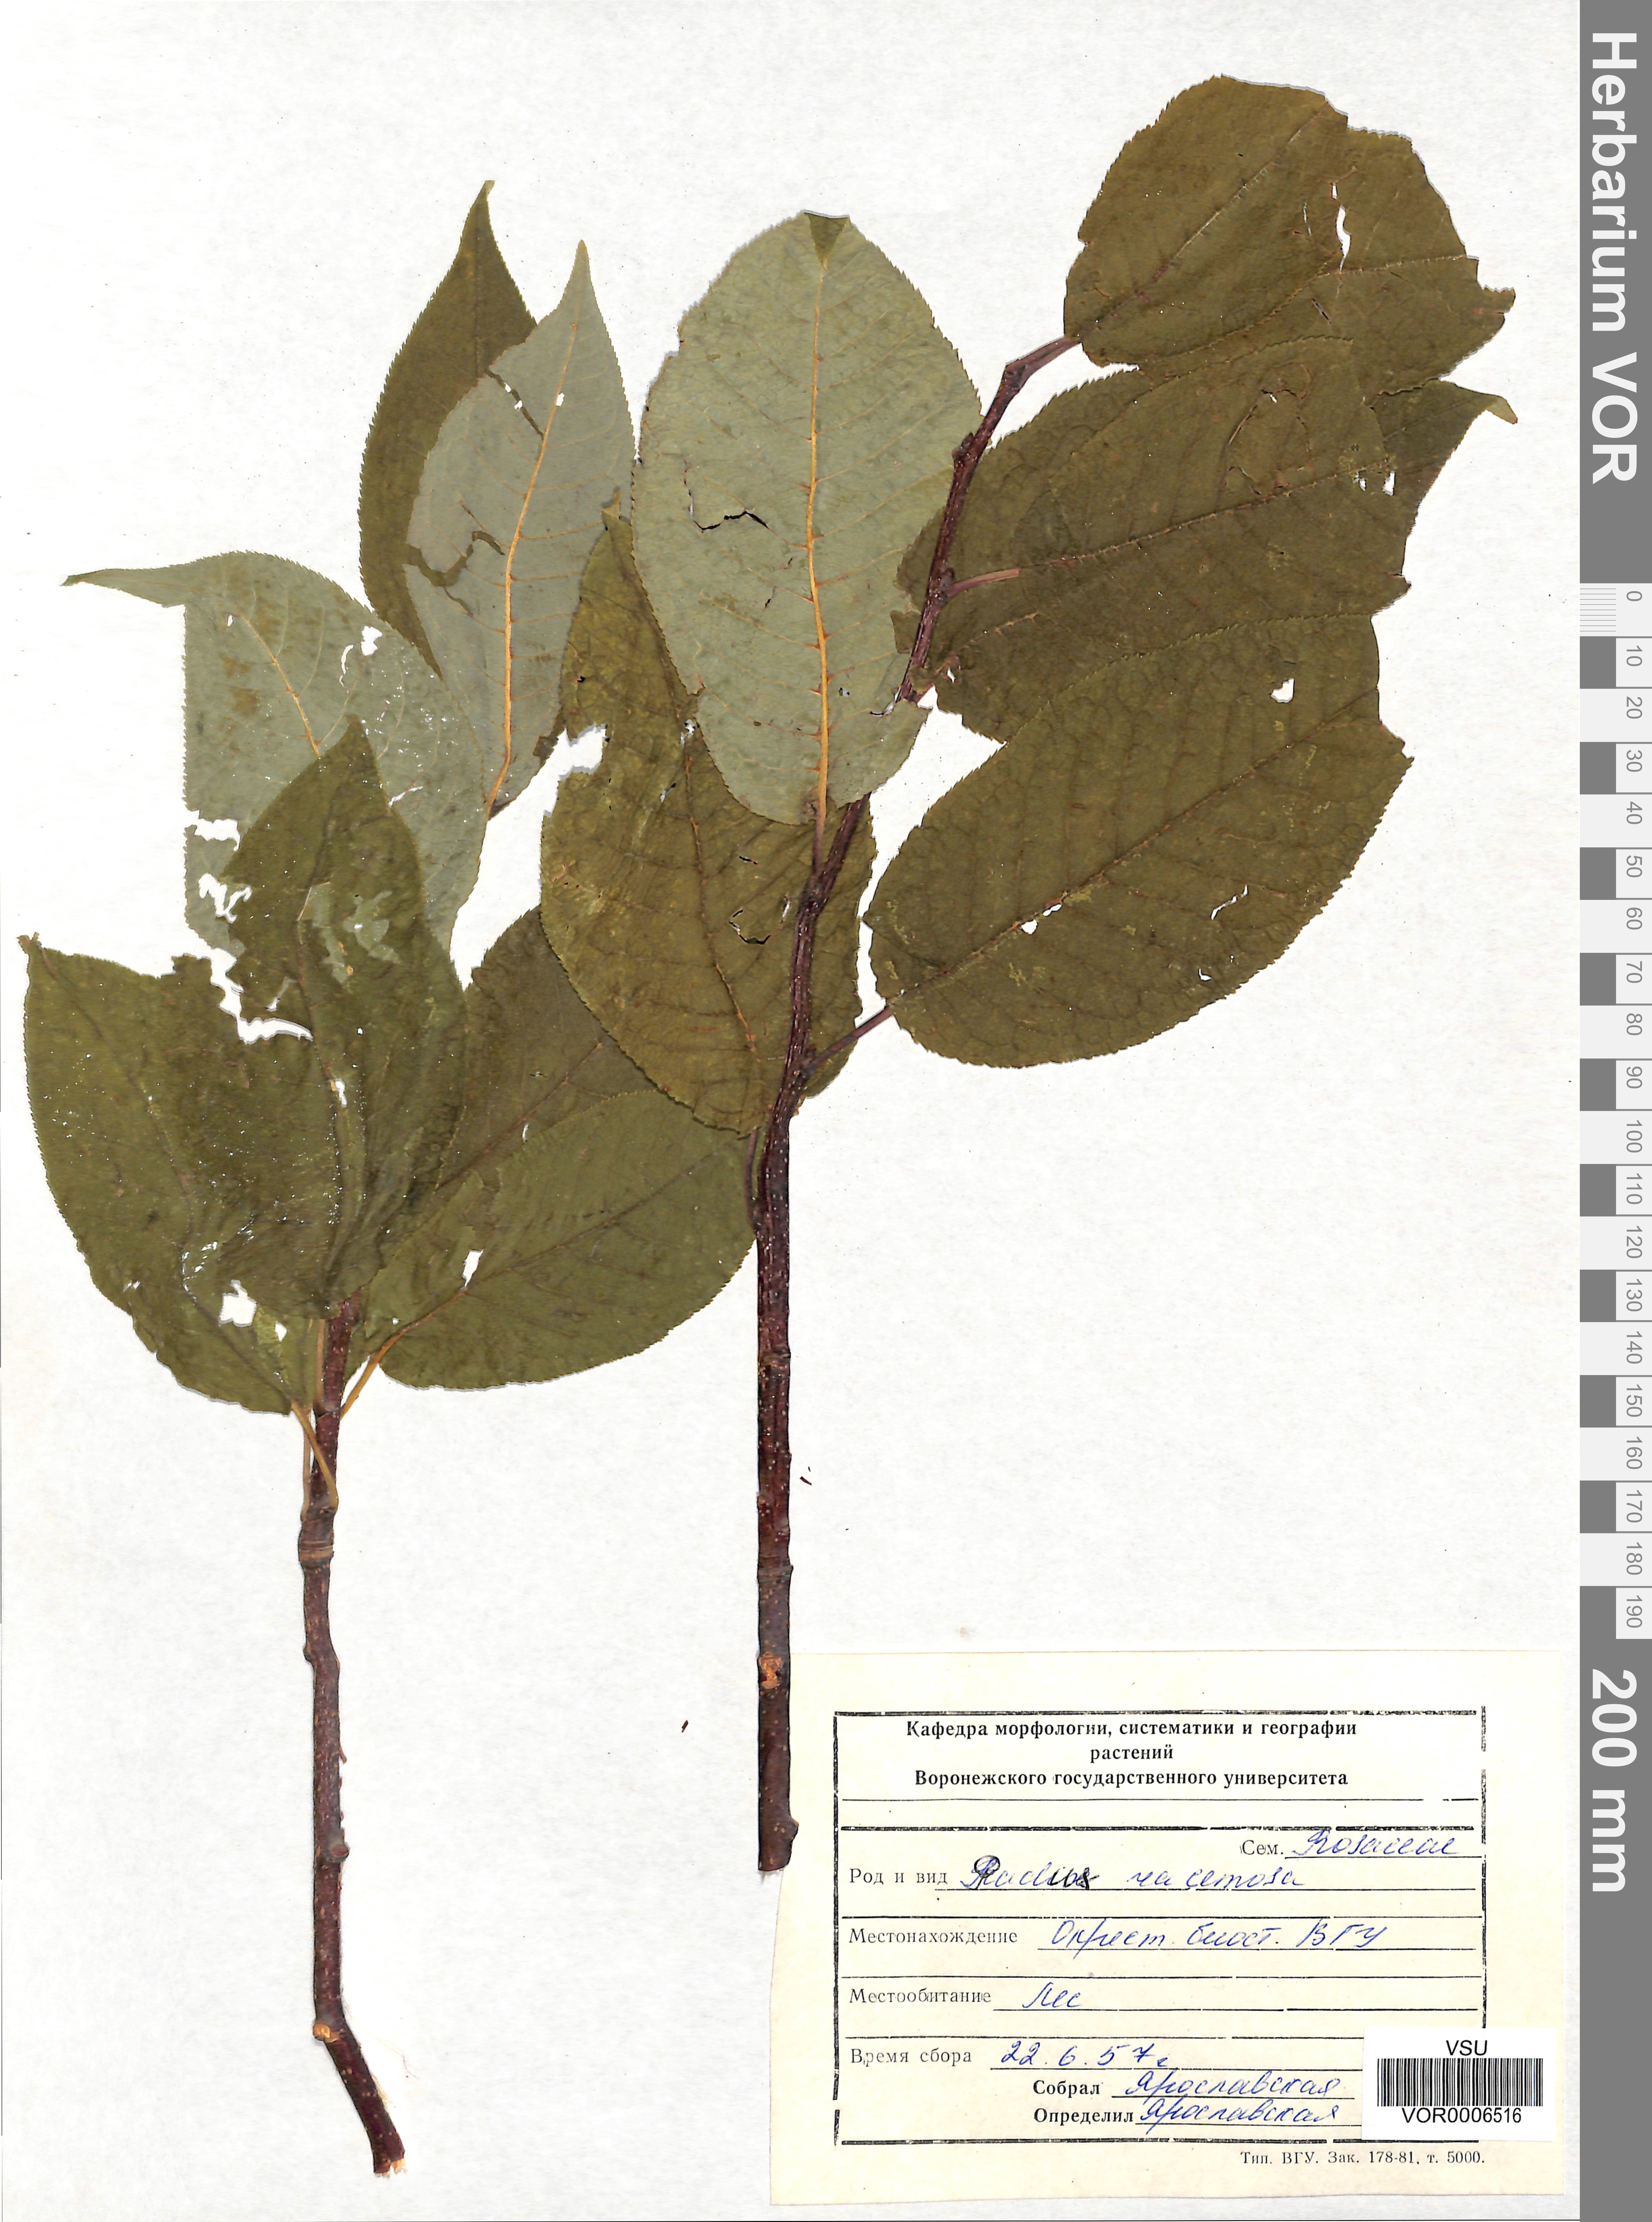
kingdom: Plantae
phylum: Tracheophyta
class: Magnoliopsida
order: Rosales
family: Rosaceae
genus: Prunus
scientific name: Prunus padus
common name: Bird cherry
